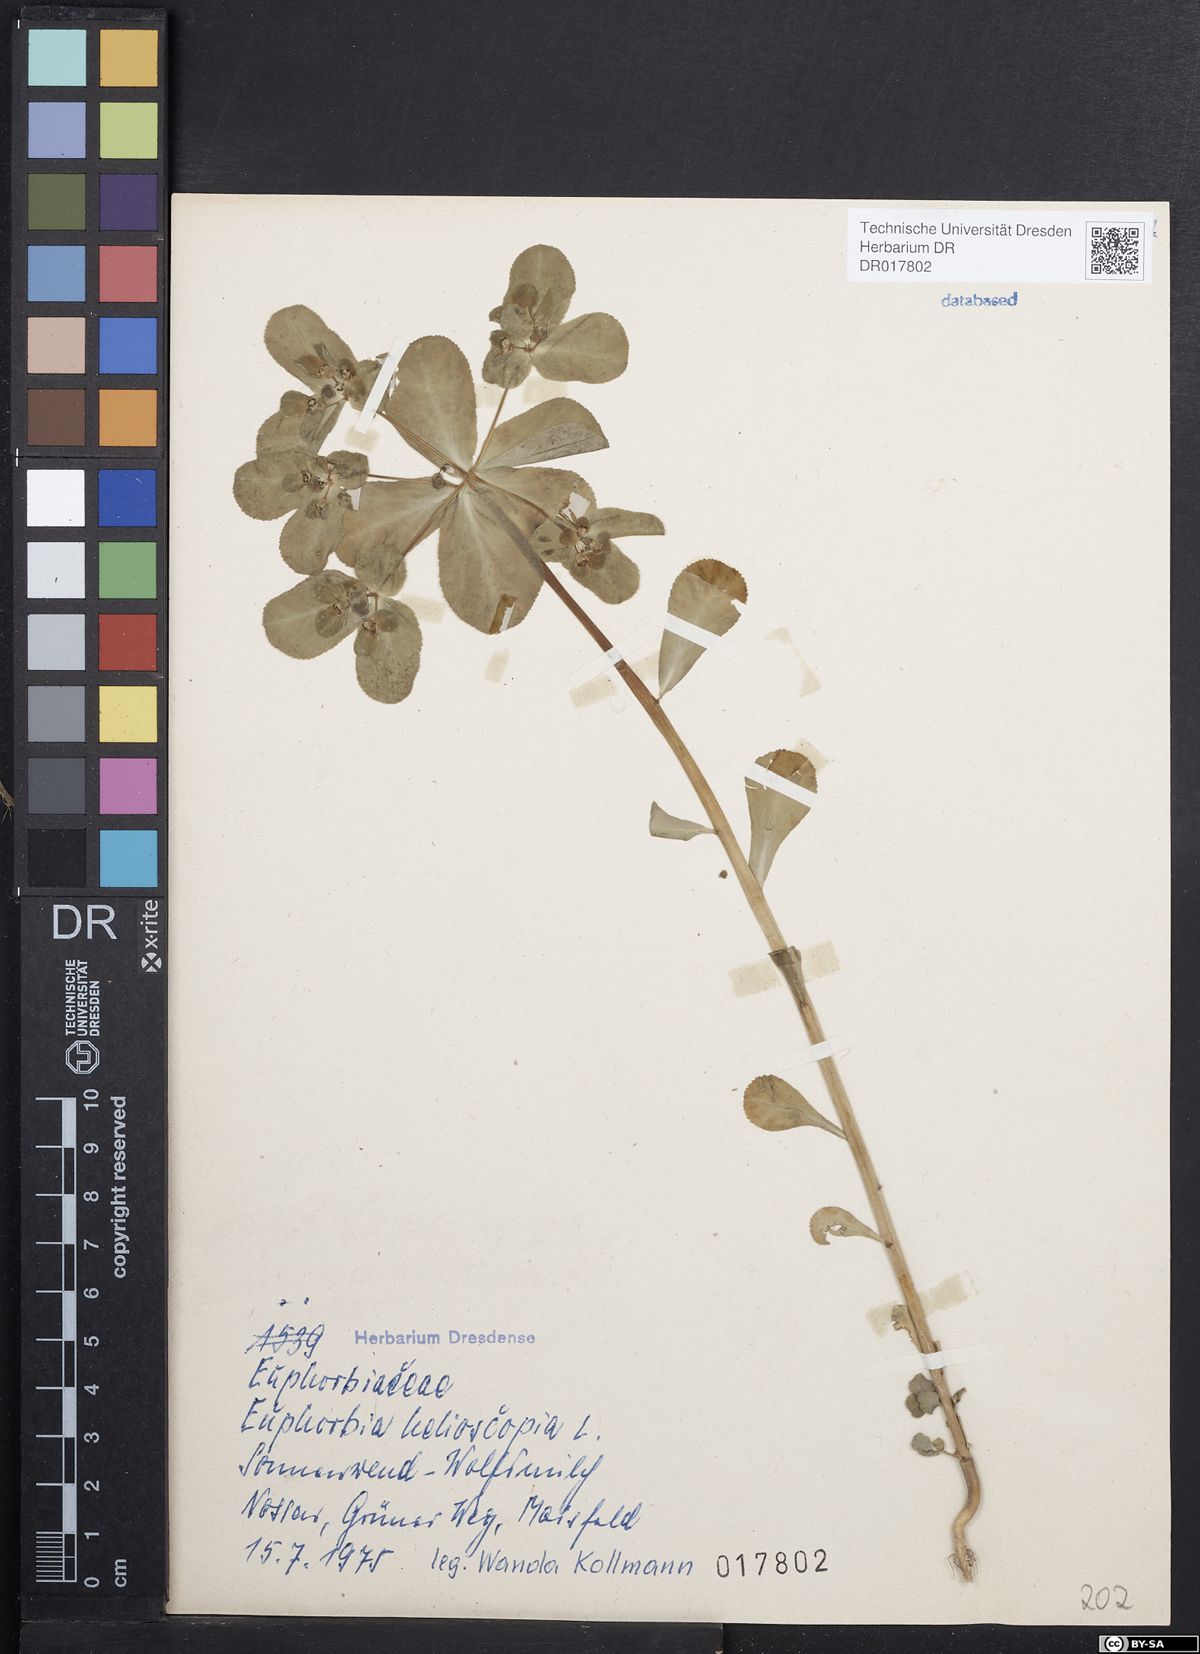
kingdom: Plantae
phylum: Tracheophyta
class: Magnoliopsida
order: Malpighiales
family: Euphorbiaceae
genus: Euphorbia
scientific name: Euphorbia helioscopia
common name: Sun spurge
